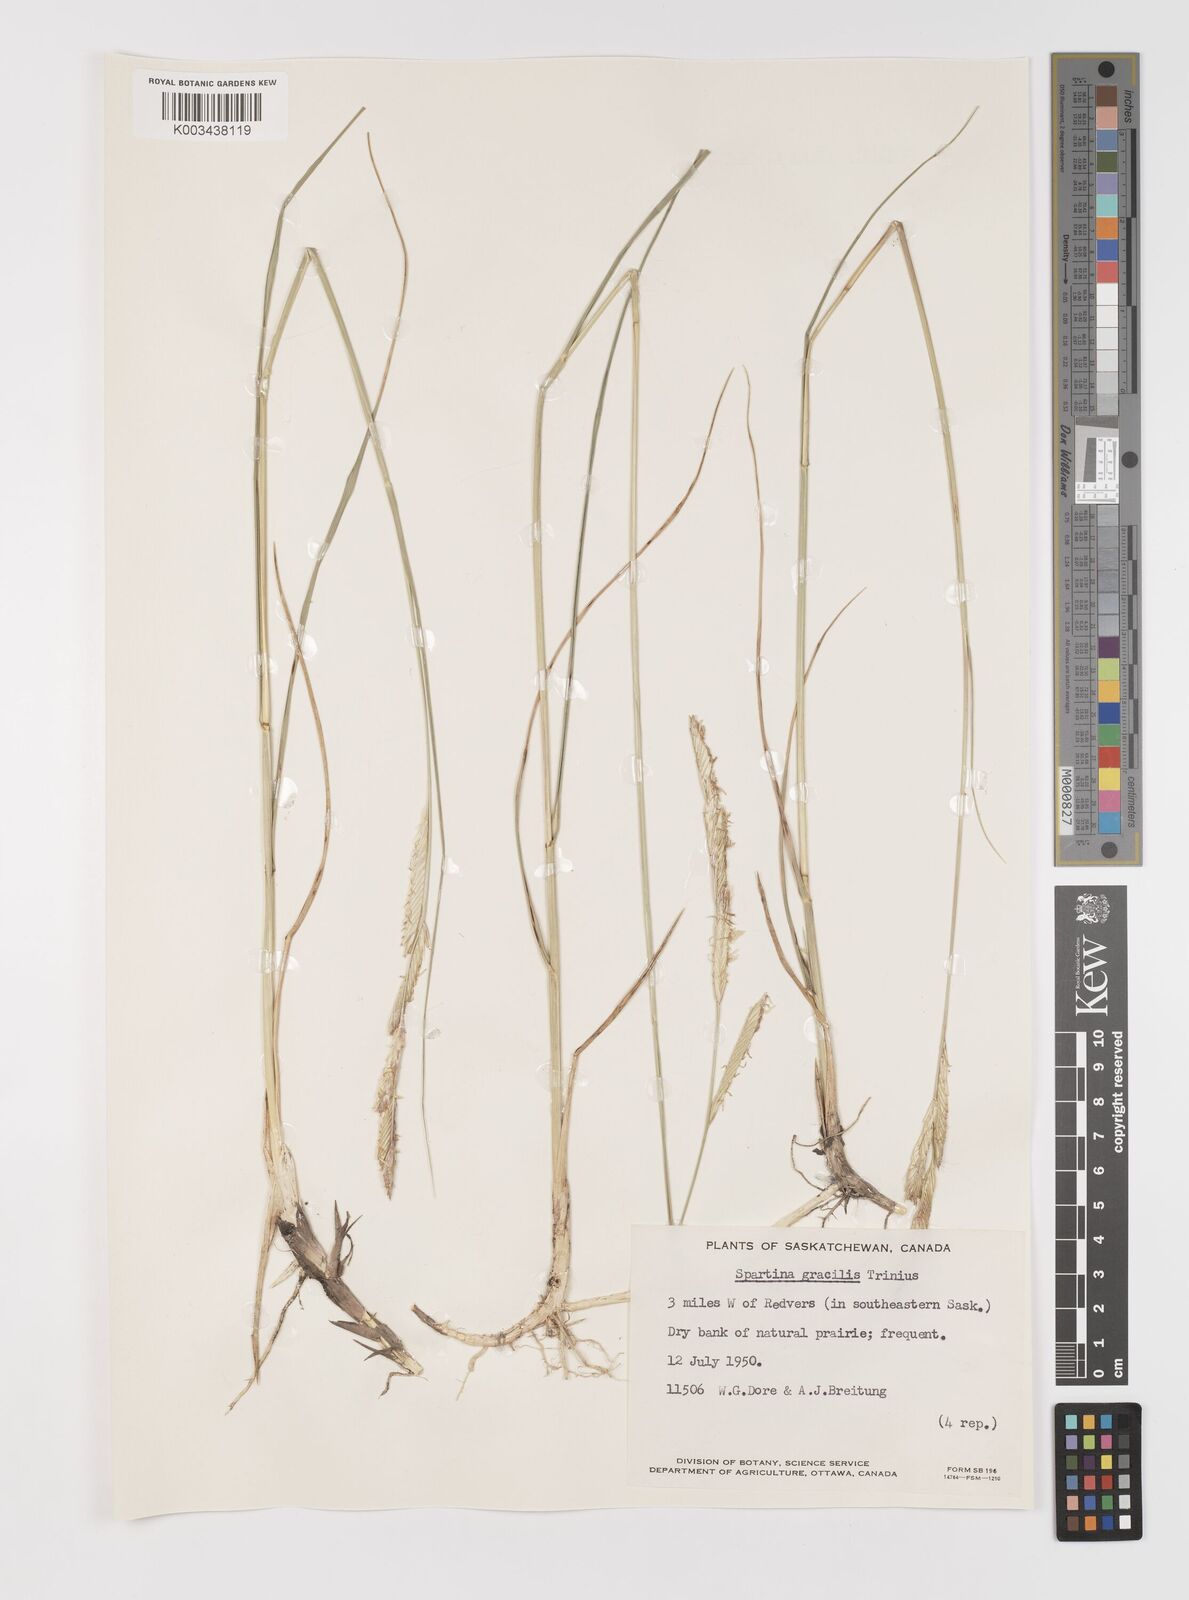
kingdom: Plantae
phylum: Tracheophyta
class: Liliopsida
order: Poales
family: Poaceae
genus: Sporobolus
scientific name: Sporobolus hookerianus
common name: Alkali cordgrass
